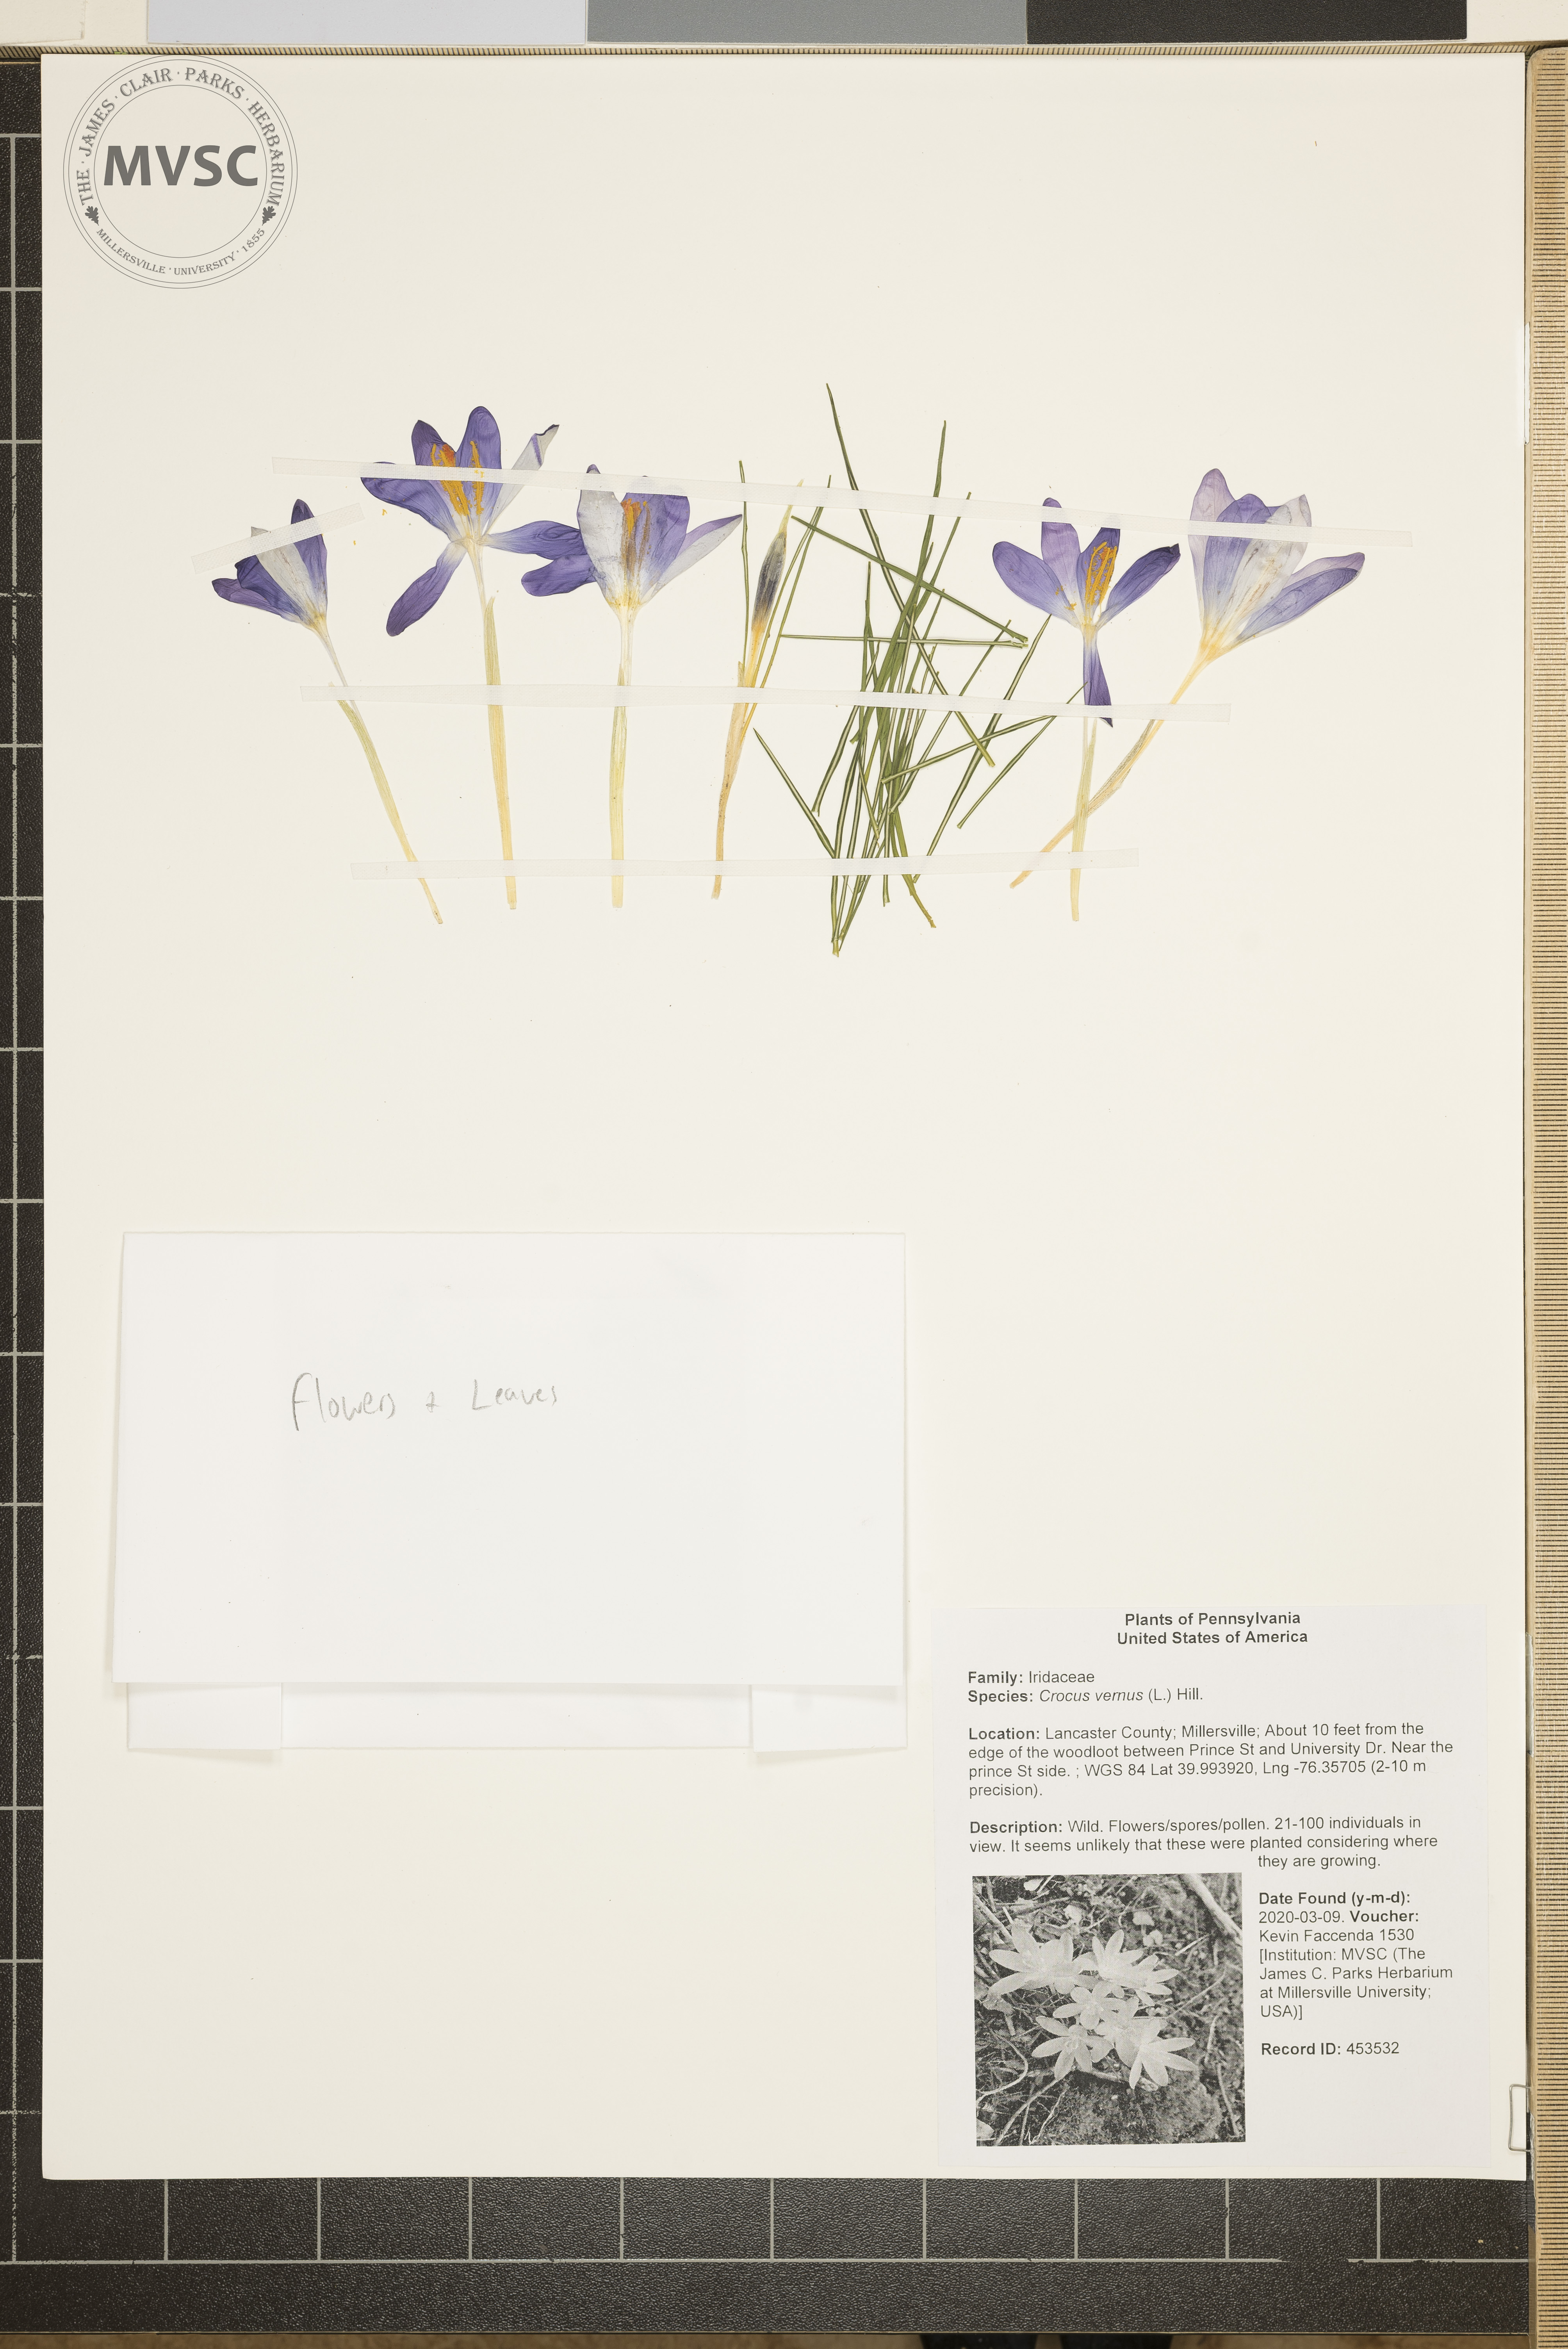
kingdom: Plantae
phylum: Tracheophyta
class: Liliopsida
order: Asparagales
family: Iridaceae
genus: Crocus
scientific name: Crocus vernus
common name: Spring crocus
